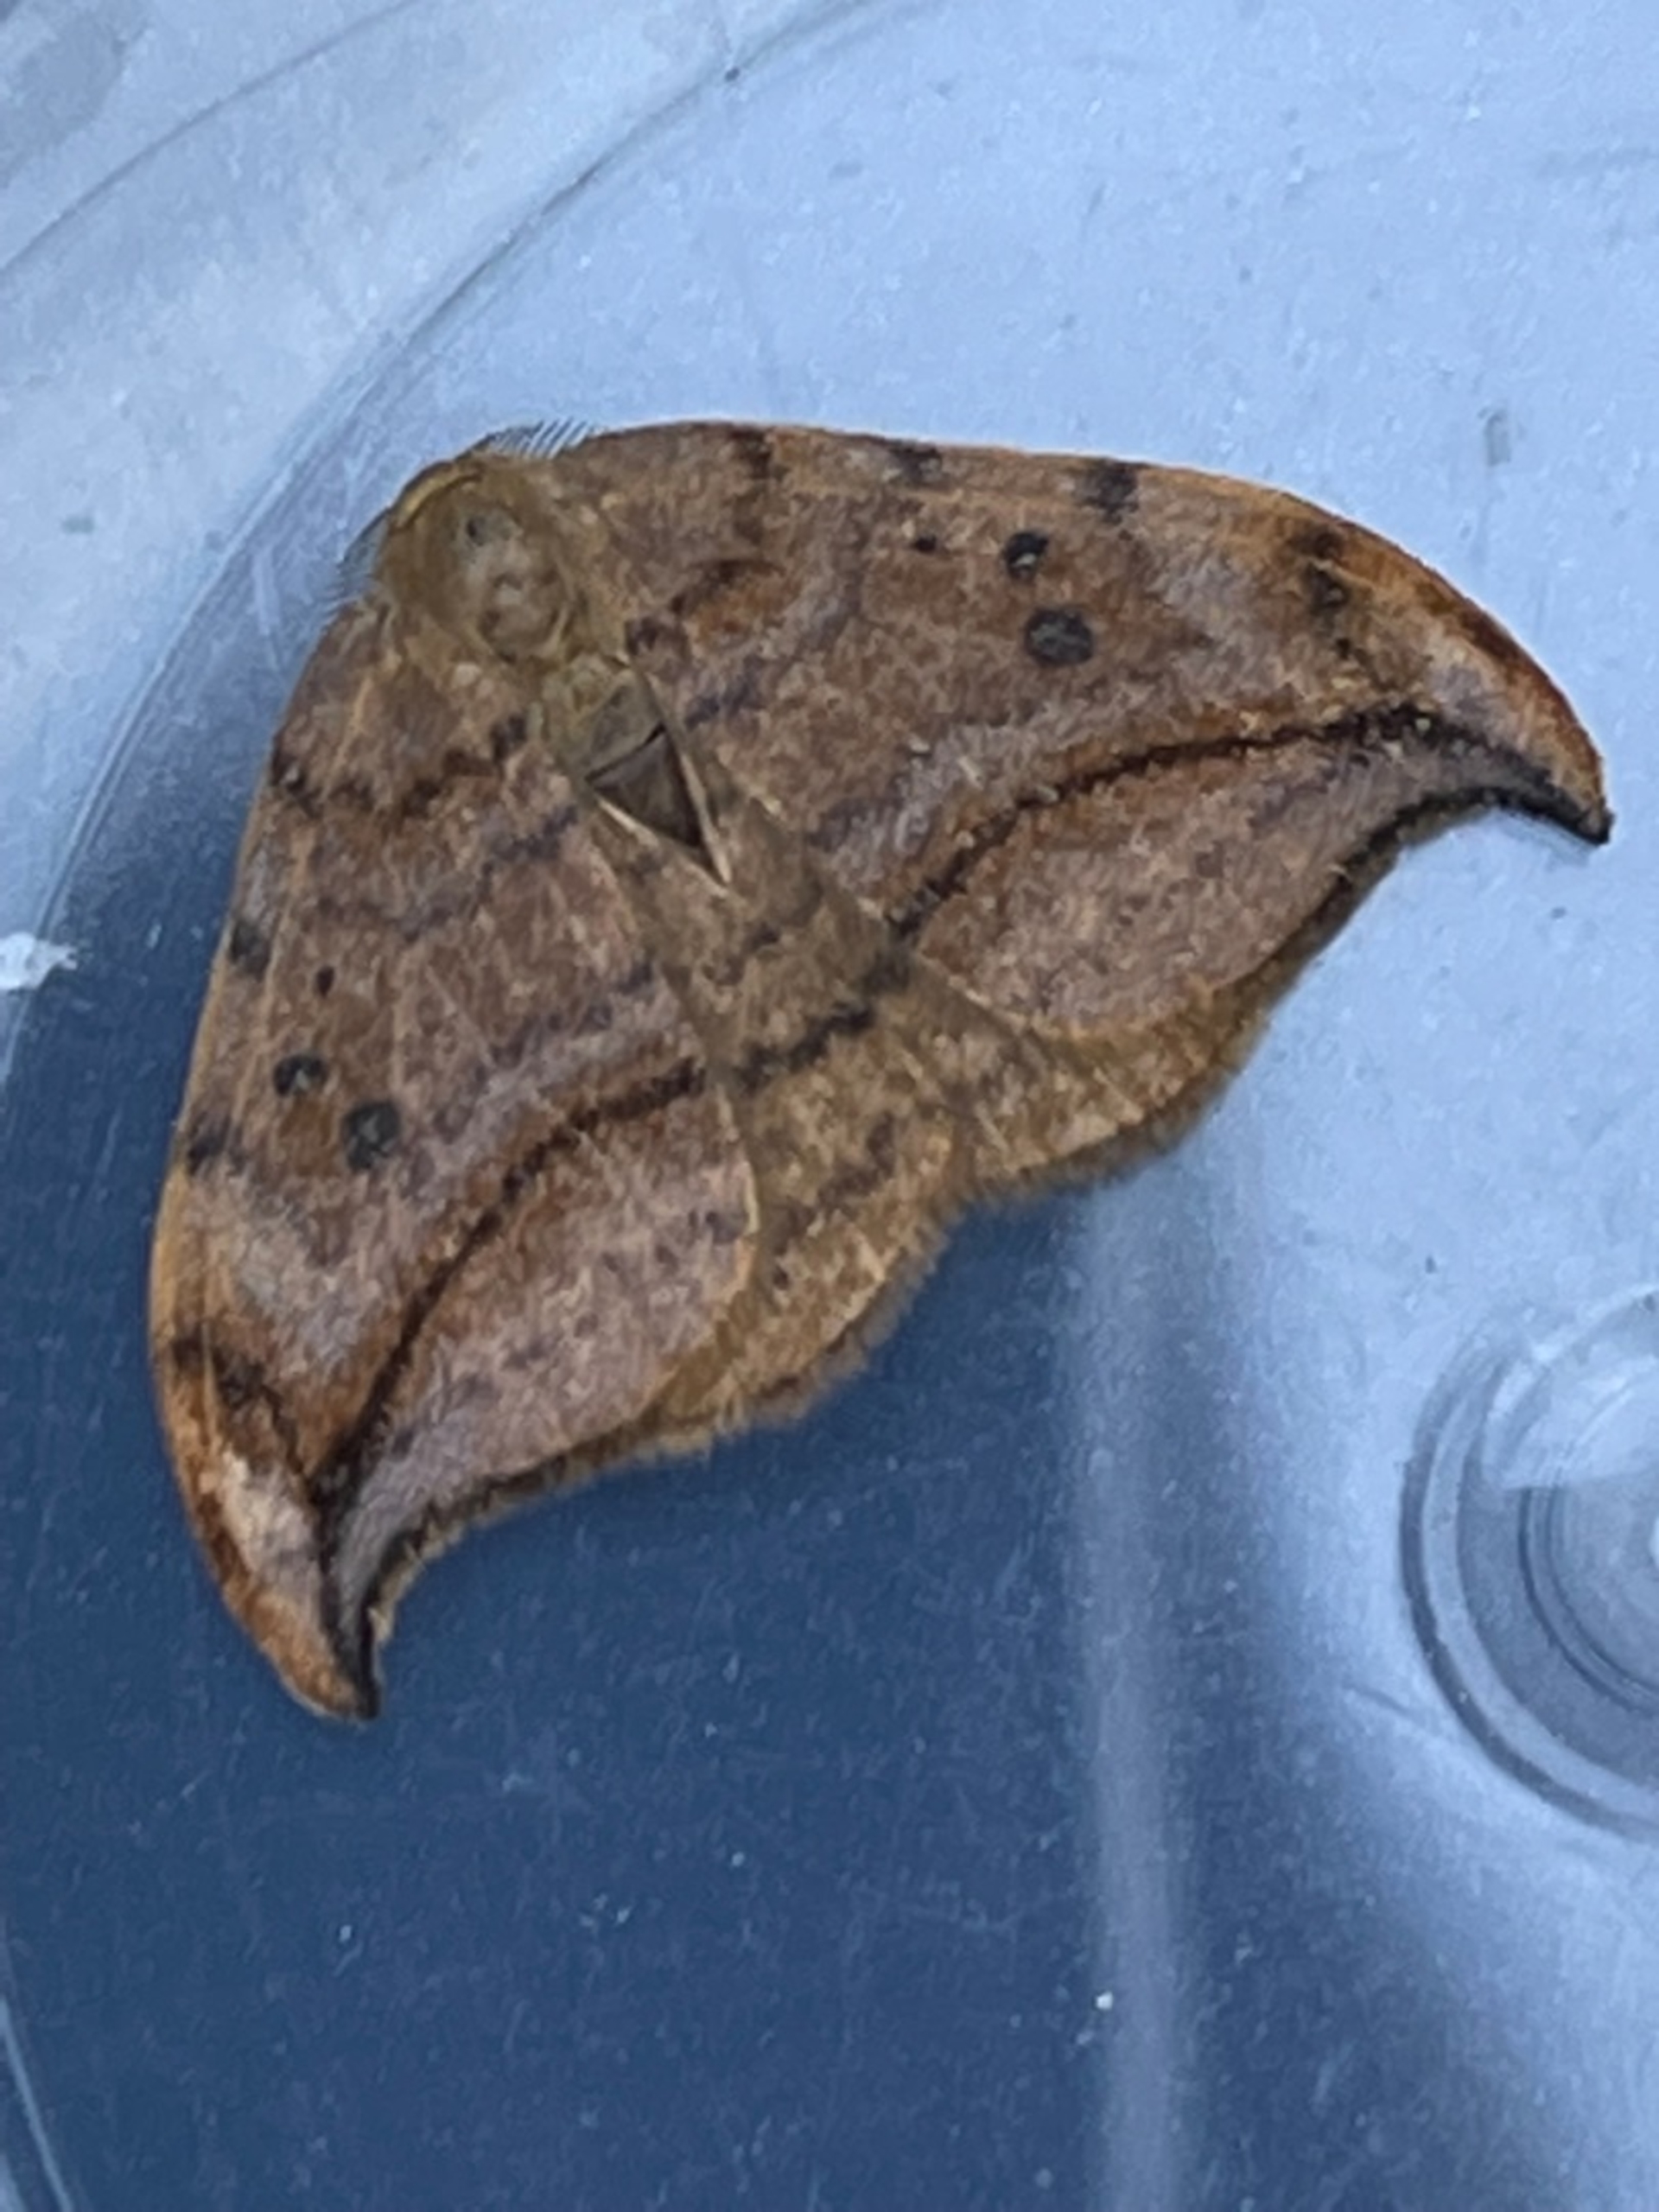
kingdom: Animalia
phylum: Arthropoda
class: Insecta
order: Lepidoptera
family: Drepanidae
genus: Drepana
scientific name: Drepana curvatula
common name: Brun seglvinge
